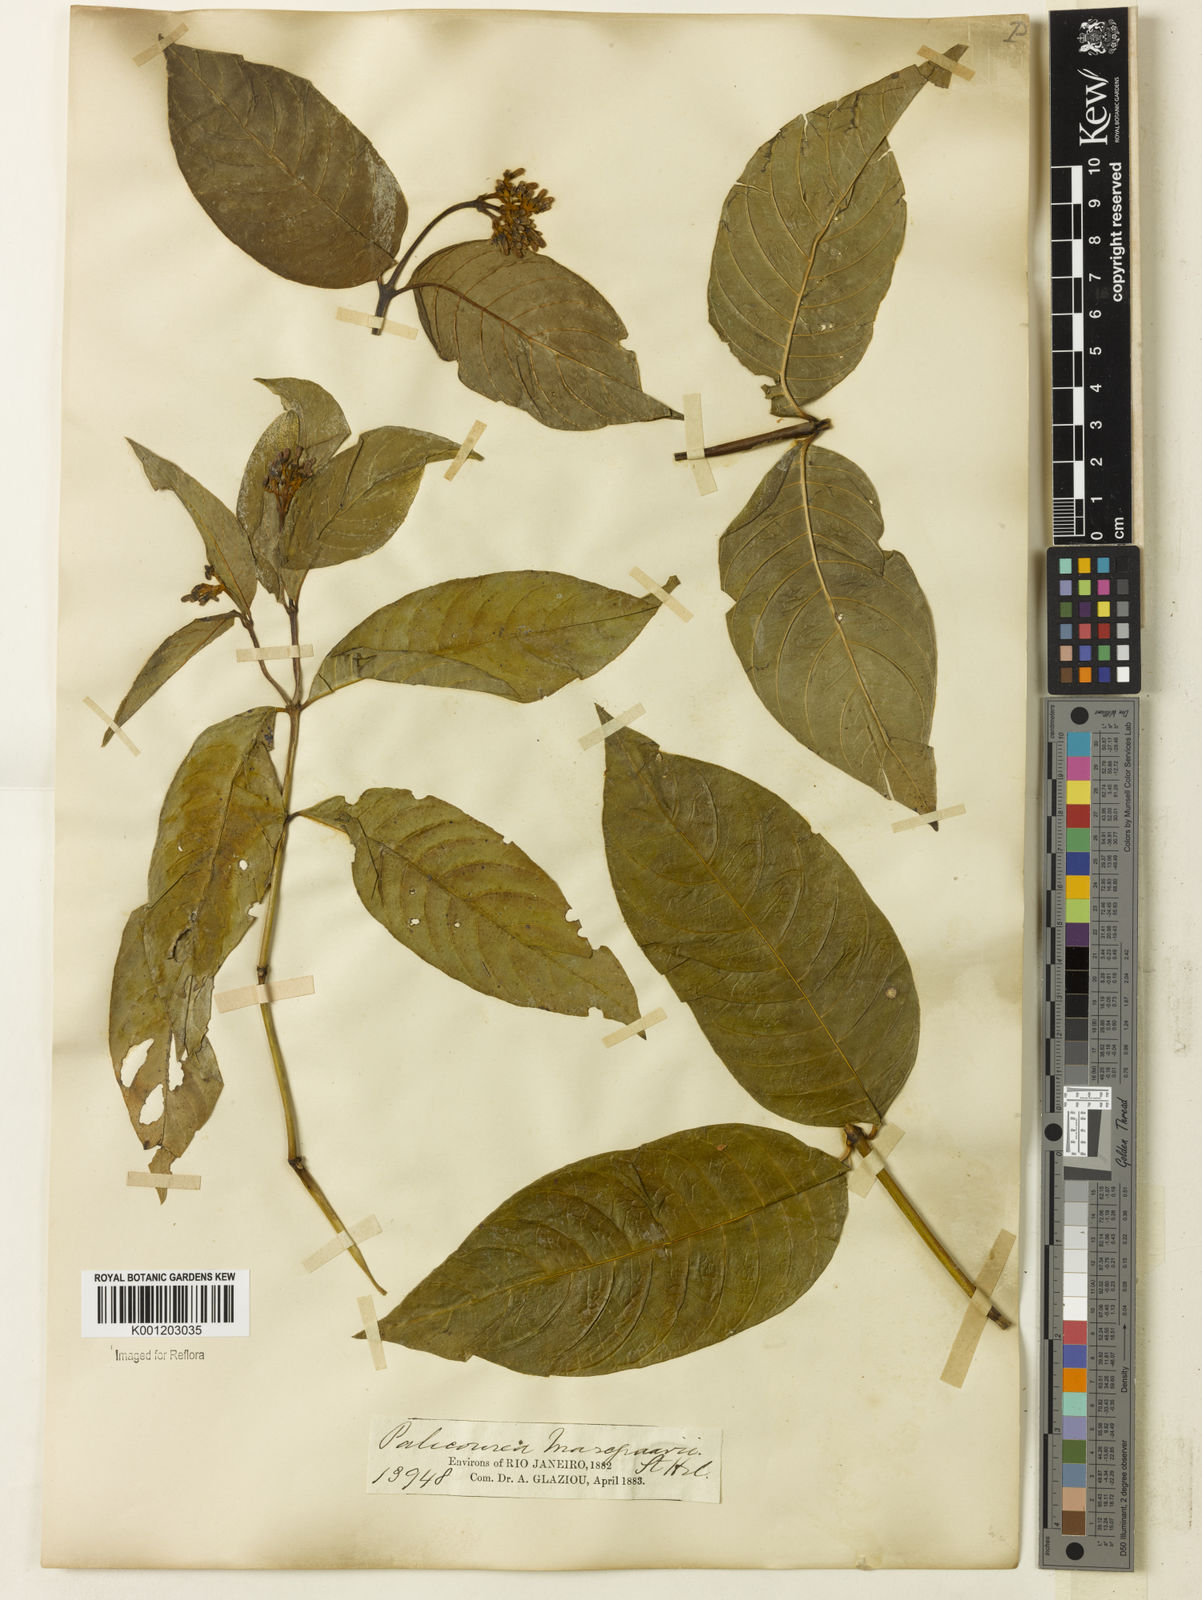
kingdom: Plantae
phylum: Tracheophyta
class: Magnoliopsida
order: Gentianales
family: Rubiaceae
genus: Palicourea
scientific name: Palicourea marcgravii
